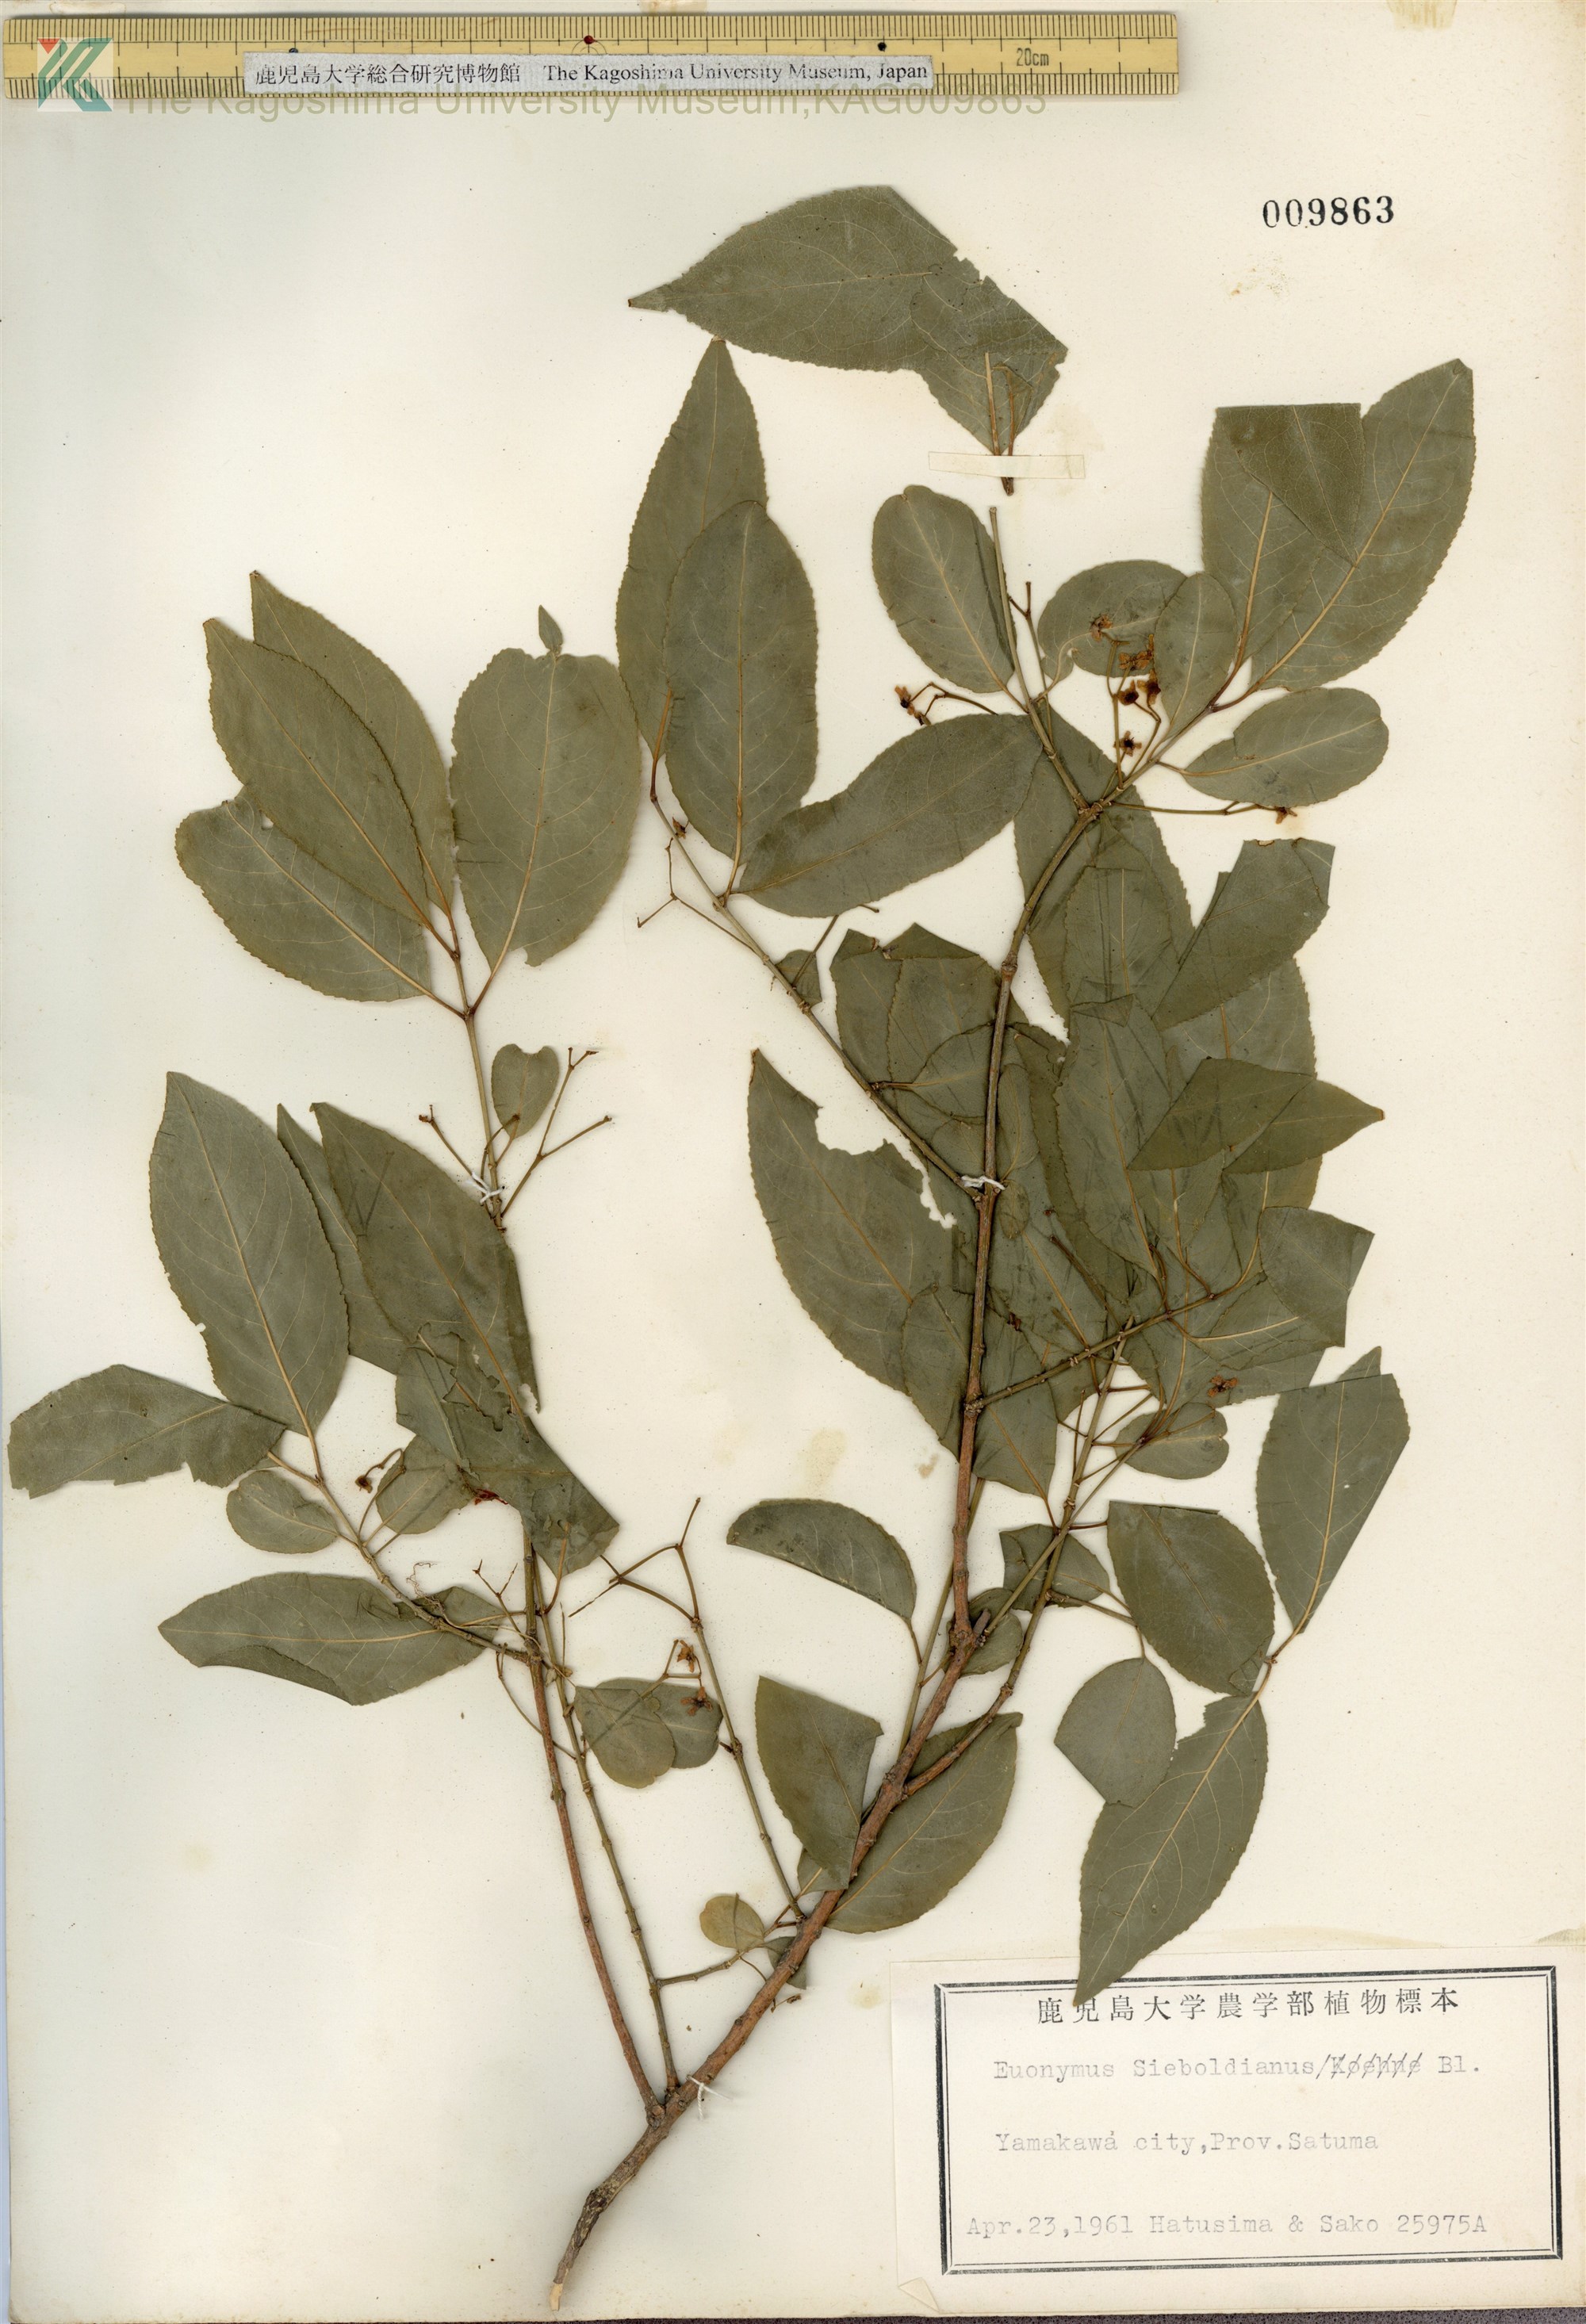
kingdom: Plantae
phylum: Tracheophyta
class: Magnoliopsida
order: Celastrales
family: Celastraceae
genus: Euonymus
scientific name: Euonymus hamiltonianus
